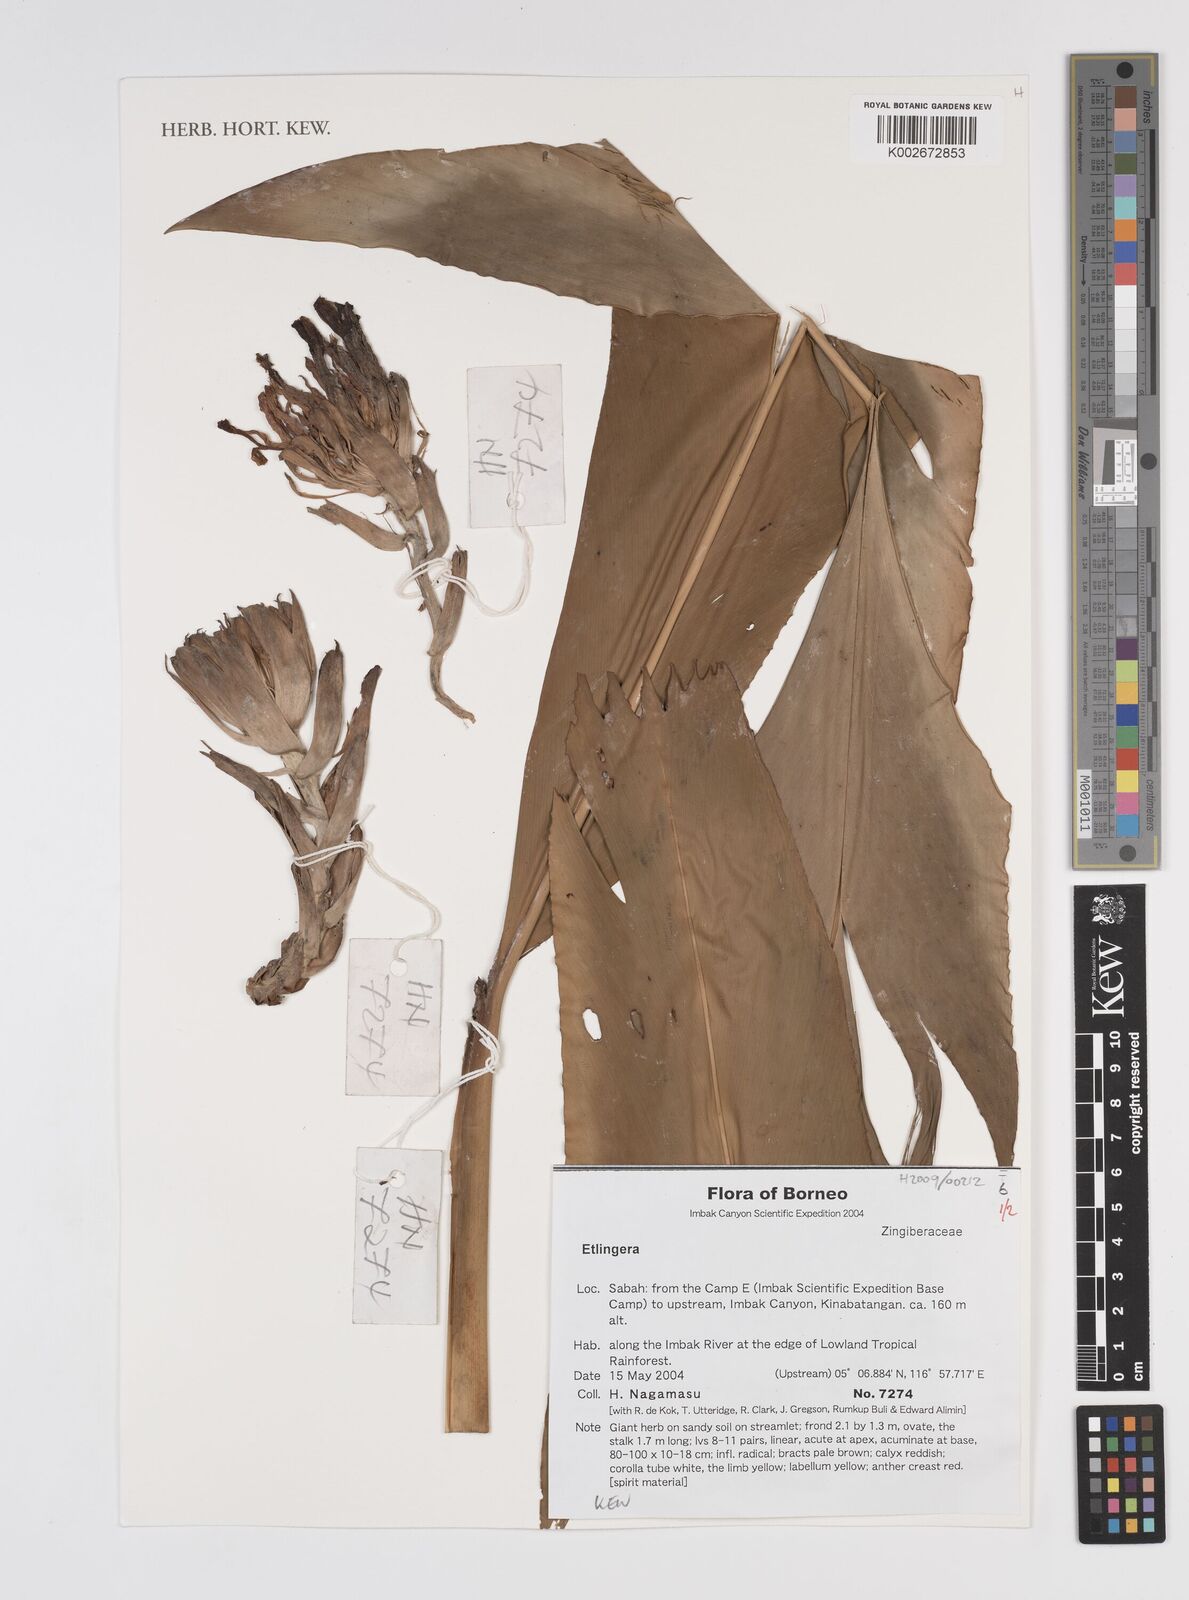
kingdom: Plantae
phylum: Tracheophyta
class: Liliopsida
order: Zingiberales
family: Zingiberaceae
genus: Etlingera
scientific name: Etlingera
